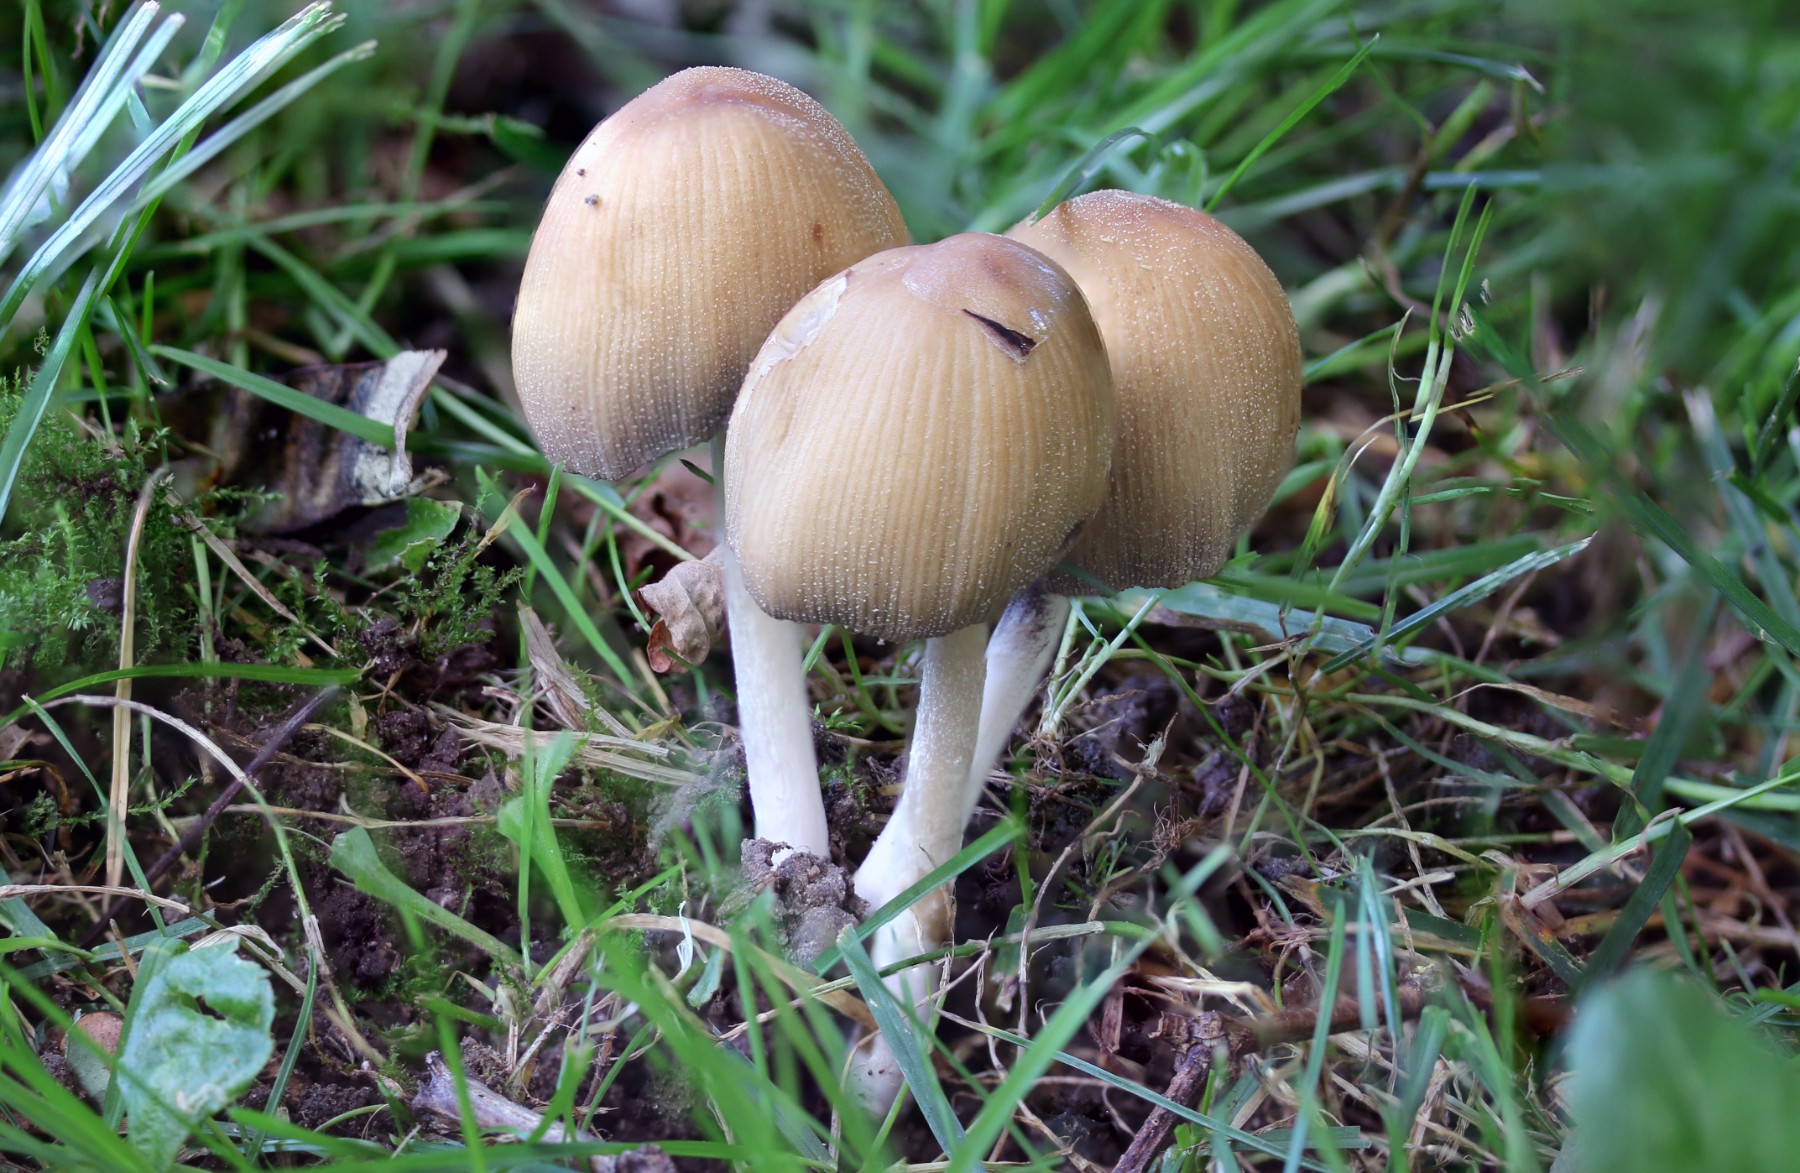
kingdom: Fungi
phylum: Basidiomycota
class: Agaricomycetes
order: Agaricales
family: Psathyrellaceae
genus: Coprinellus
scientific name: Coprinellus micaceus
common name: glimmer-blækhat
